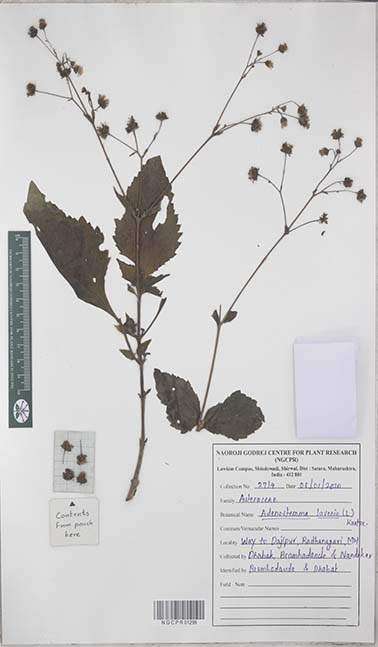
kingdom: Plantae
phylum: Tracheophyta
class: Magnoliopsida
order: Asterales
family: Asteraceae
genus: Adenostemma
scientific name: Adenostemma lavenia
